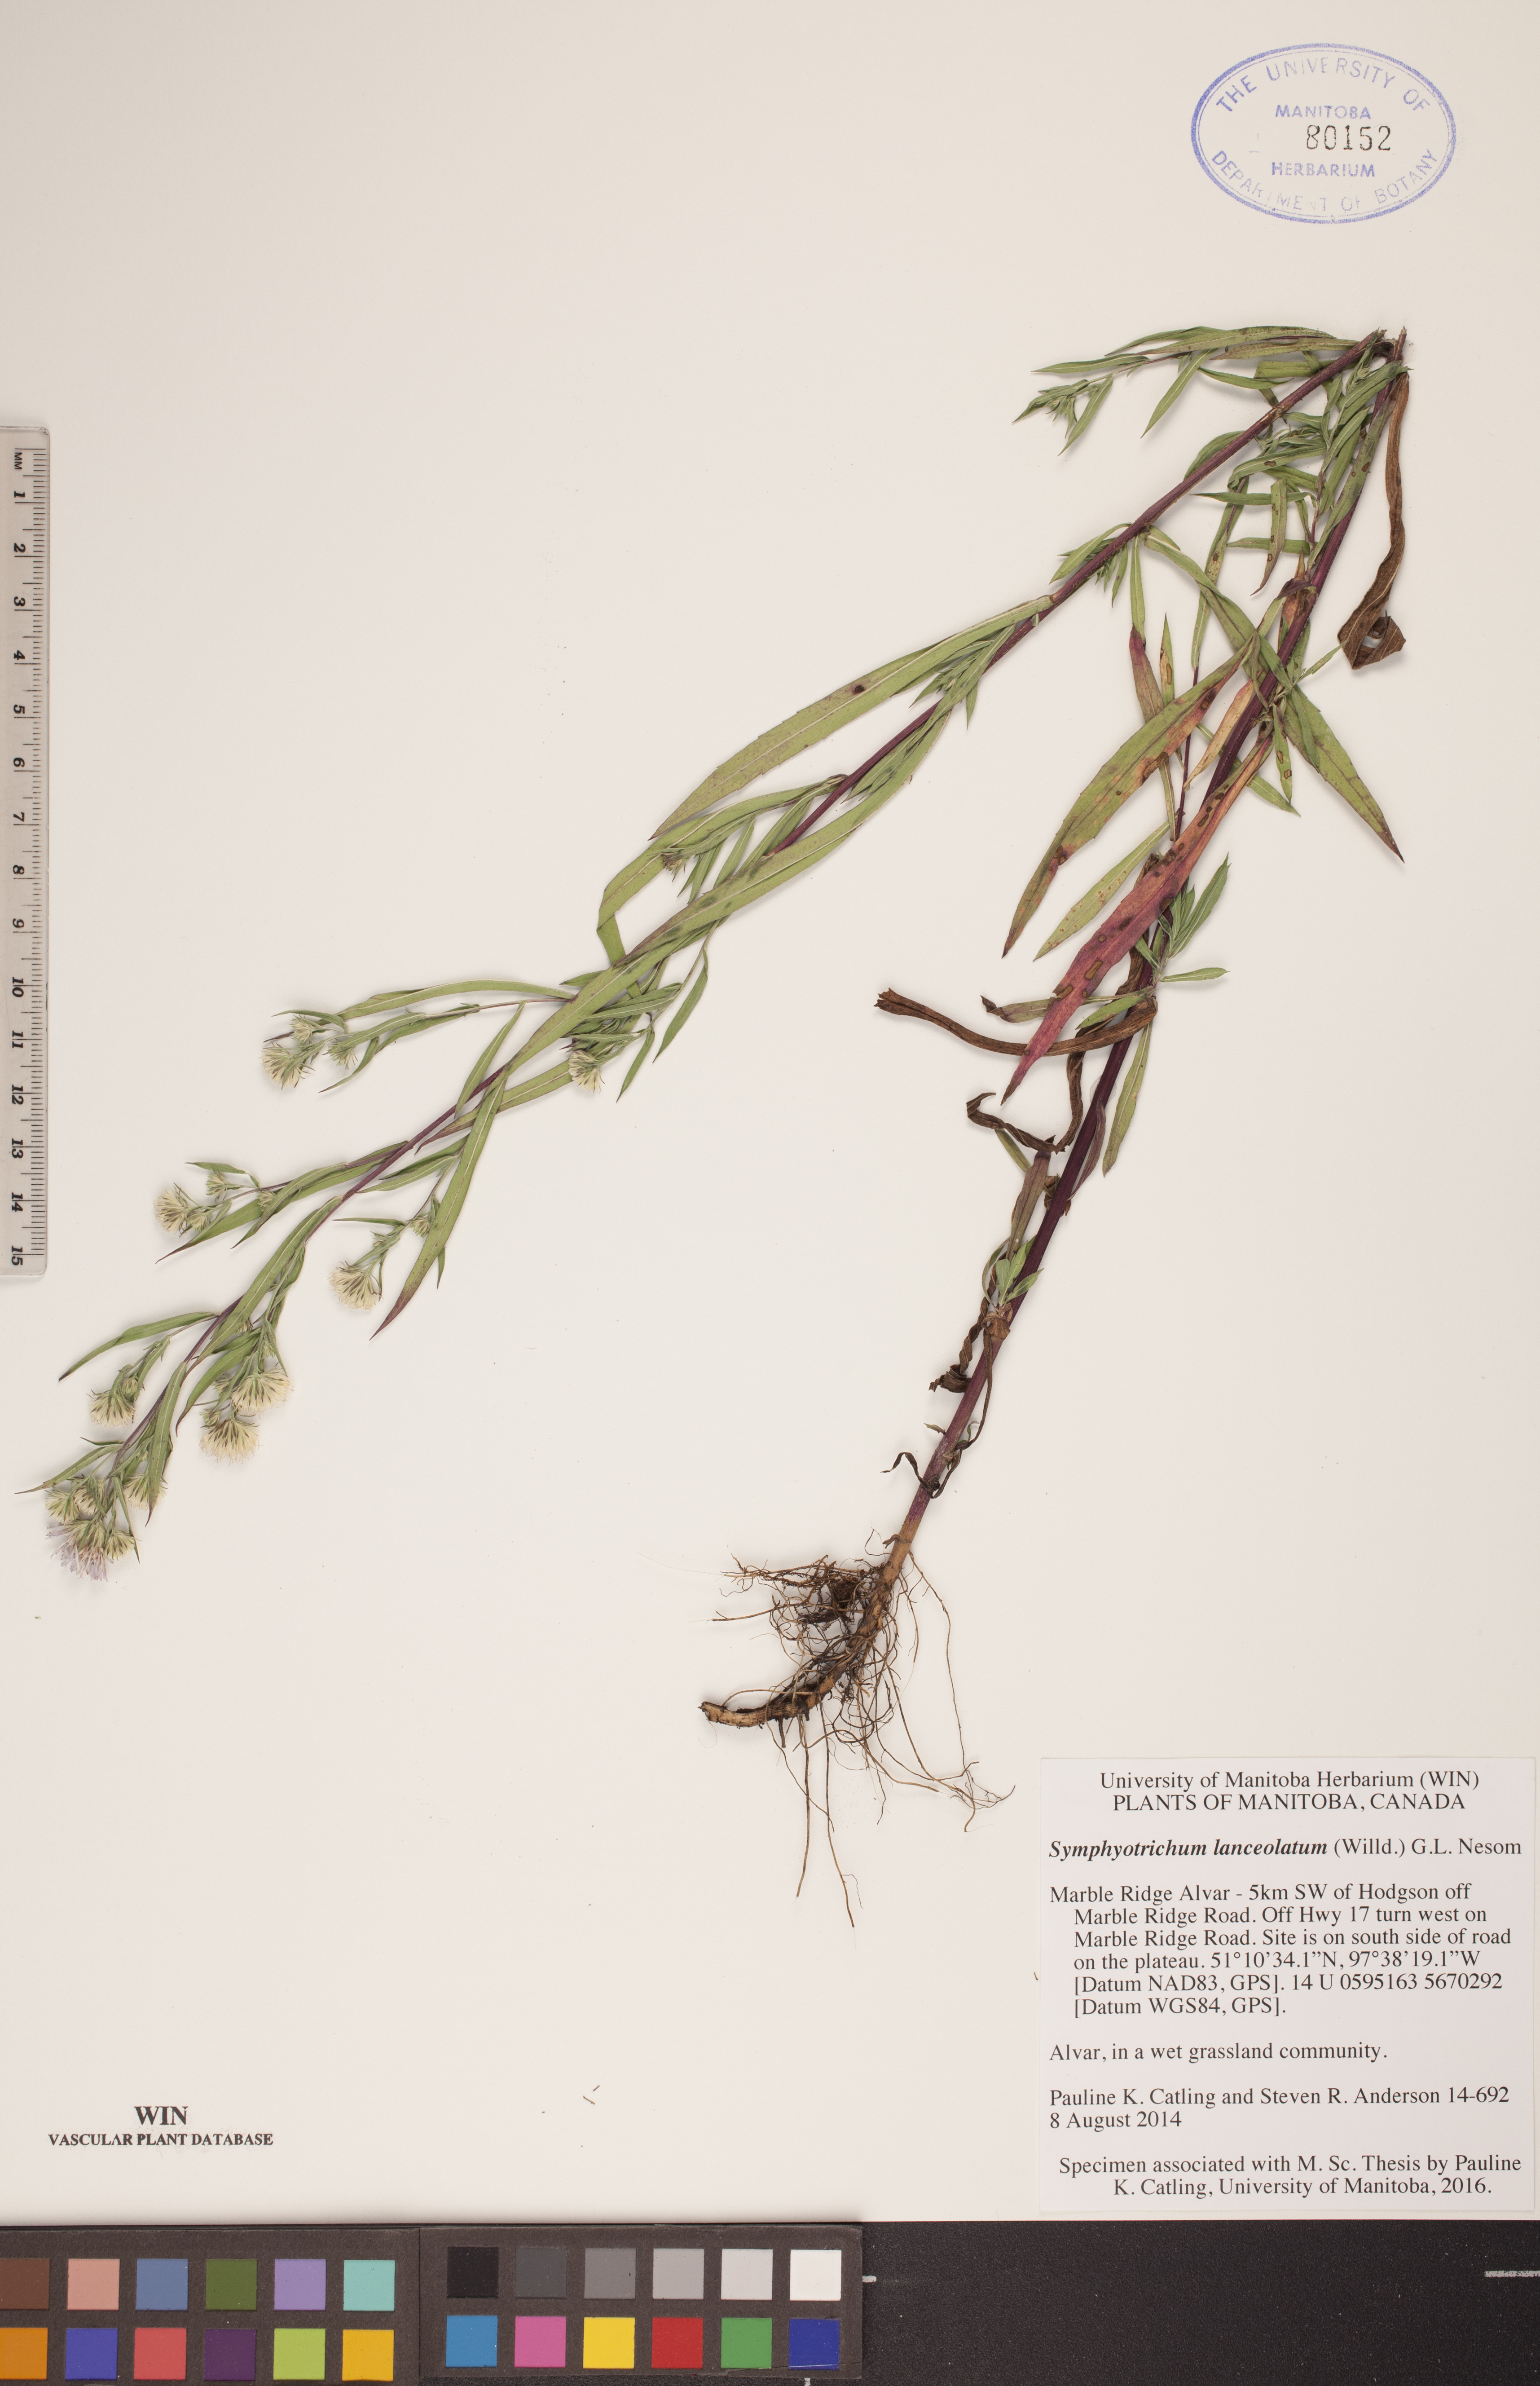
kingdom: Plantae
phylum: Tracheophyta
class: Magnoliopsida
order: Asterales
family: Asteraceae
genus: Symphyotrichum
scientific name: Symphyotrichum lanceolatum
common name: Panicled aster
